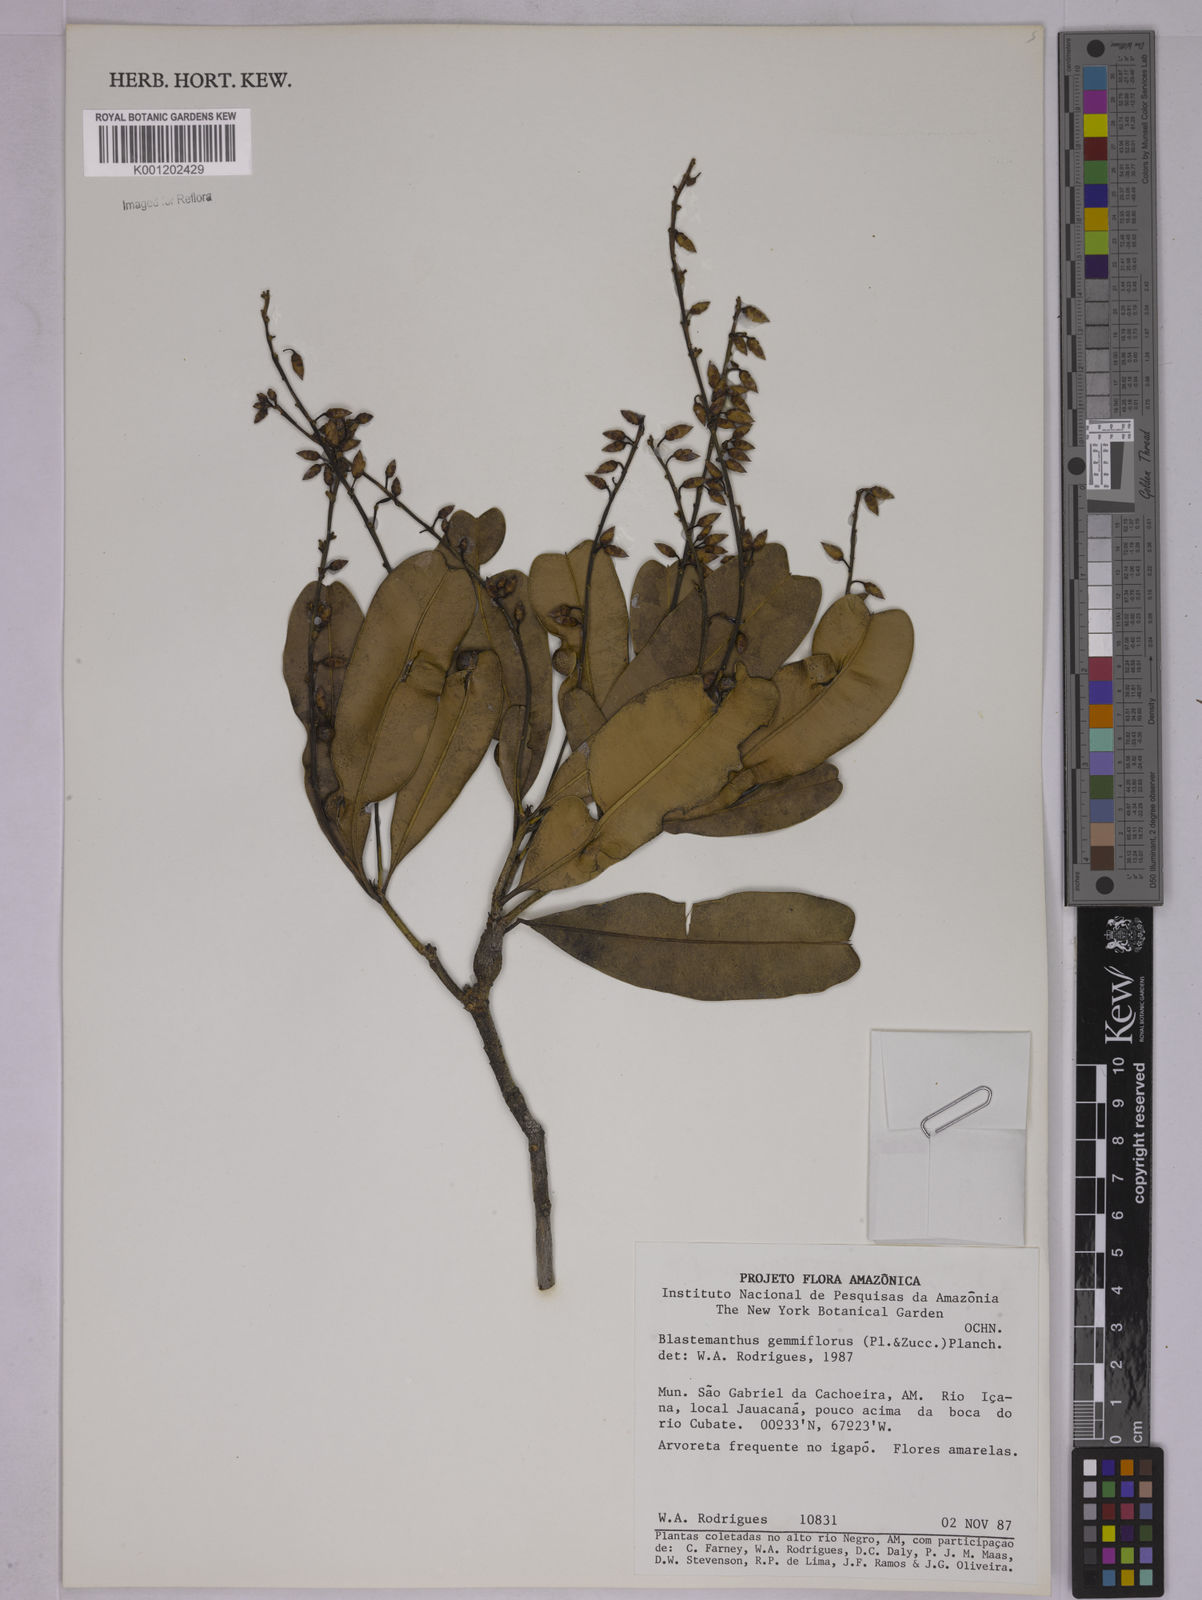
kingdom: Plantae
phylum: Tracheophyta
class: Magnoliopsida
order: Malpighiales
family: Ochnaceae
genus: Blastemanthus
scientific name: Blastemanthus gemmiflorus
